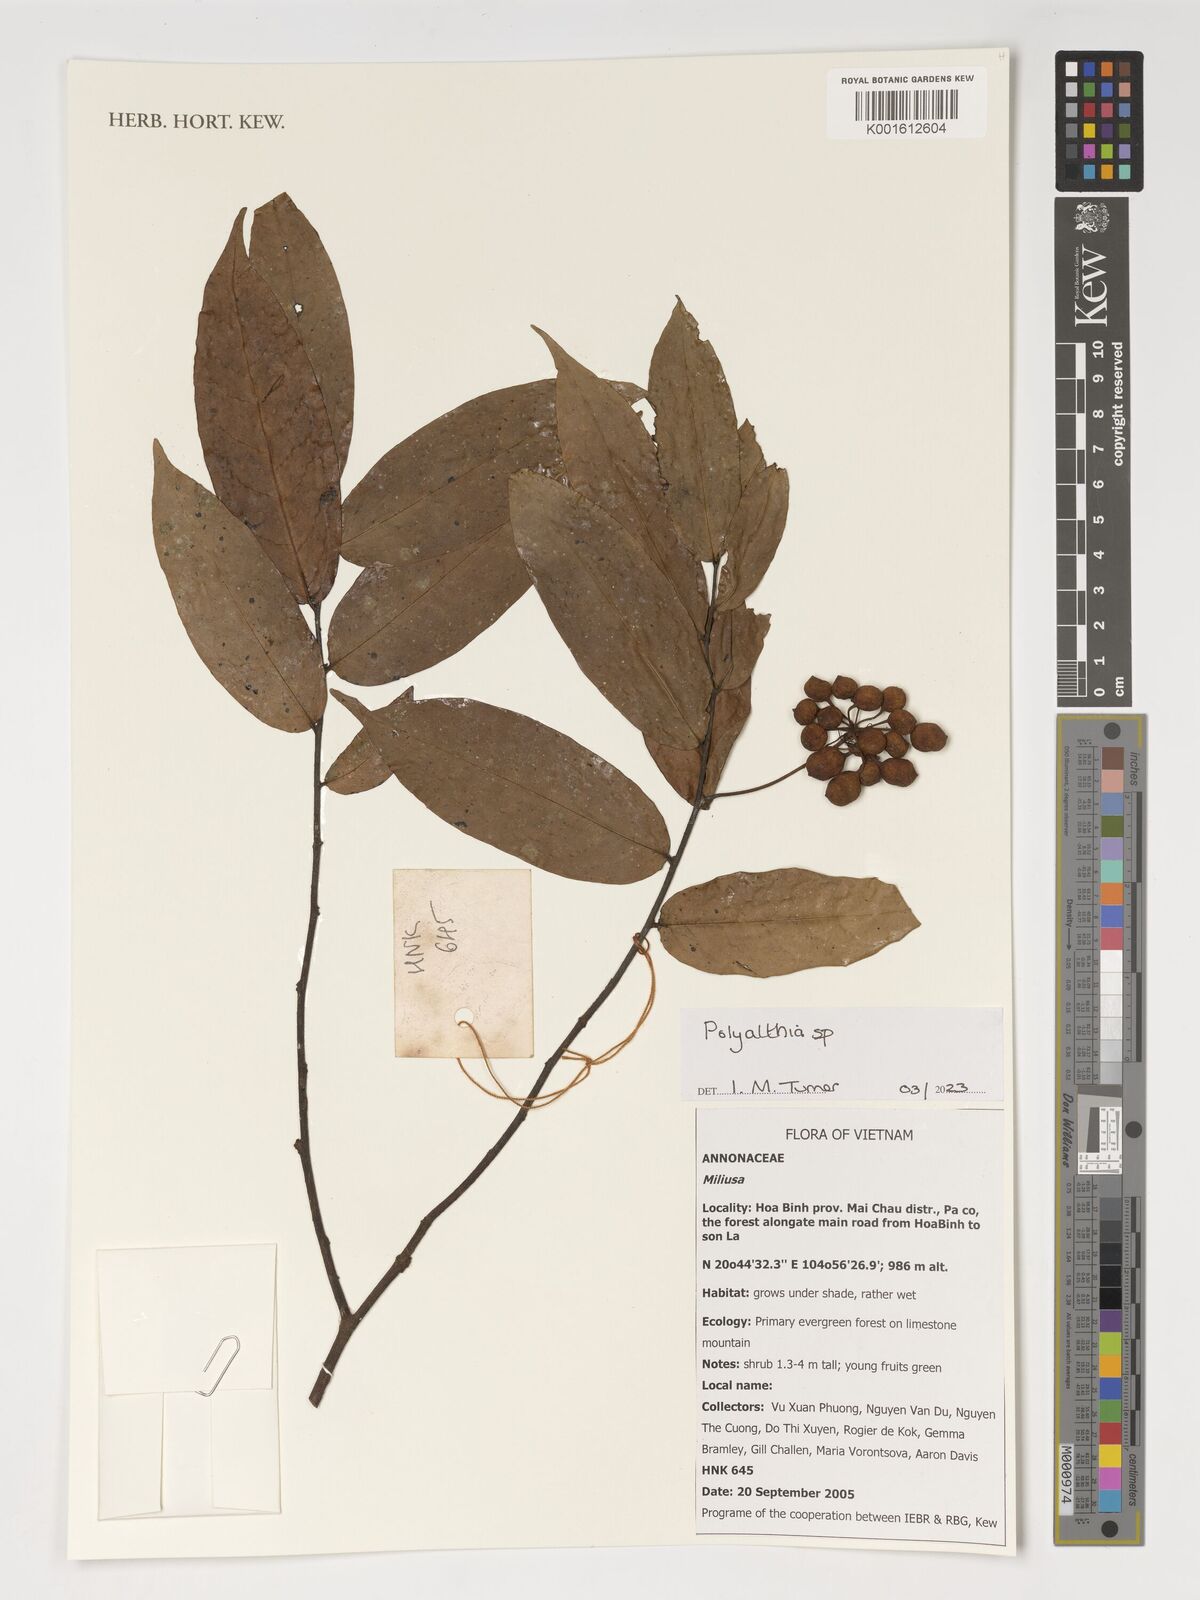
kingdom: Plantae
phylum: Tracheophyta
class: Magnoliopsida
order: Magnoliales
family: Annonaceae
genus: Polyalthia
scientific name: Polyalthia
